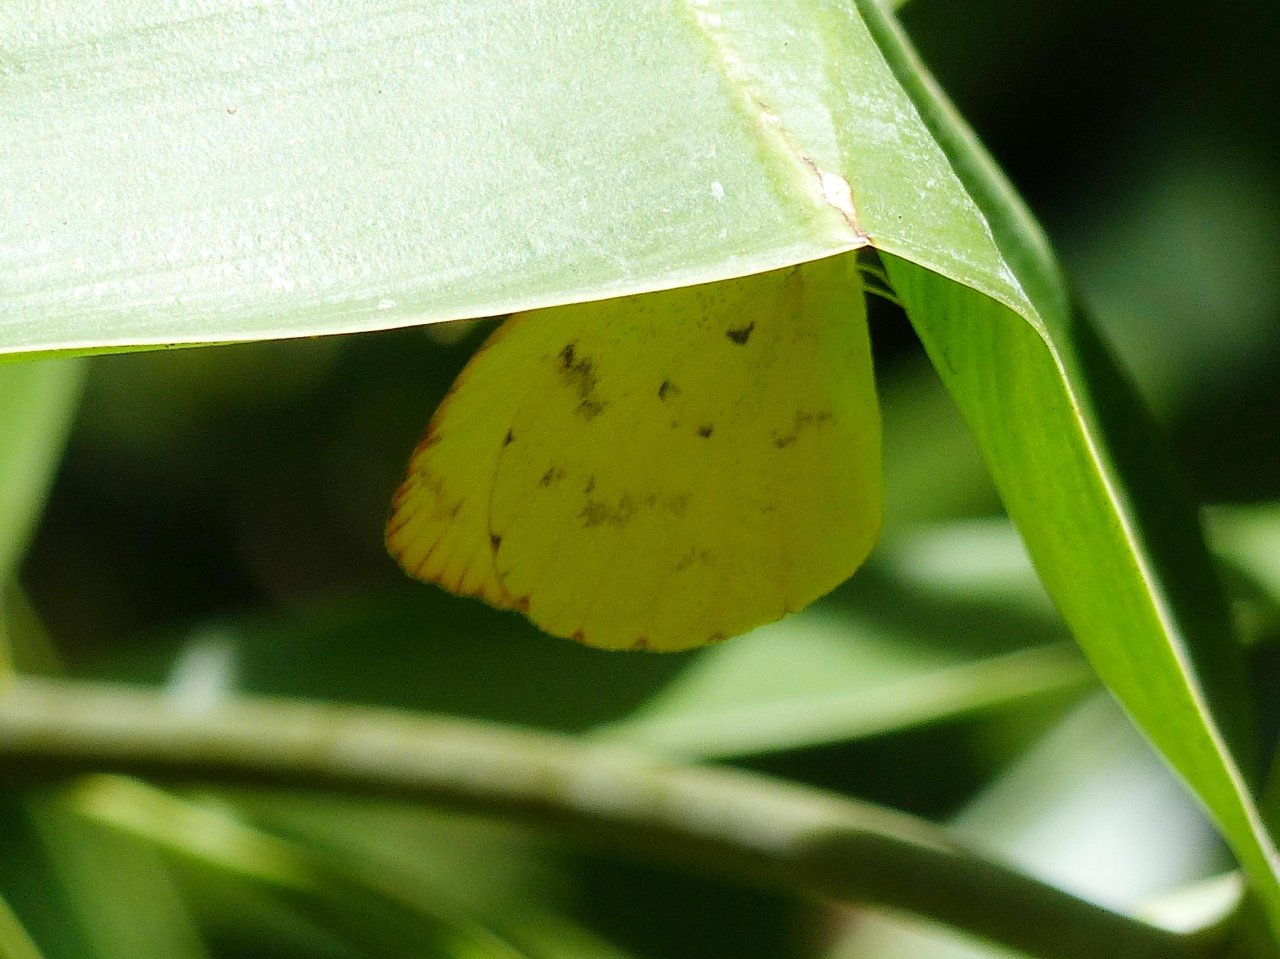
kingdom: Animalia
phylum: Arthropoda
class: Insecta
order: Lepidoptera
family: Pieridae
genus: Pyrisitia
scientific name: Pyrisitia dina
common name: Dina Yellow
